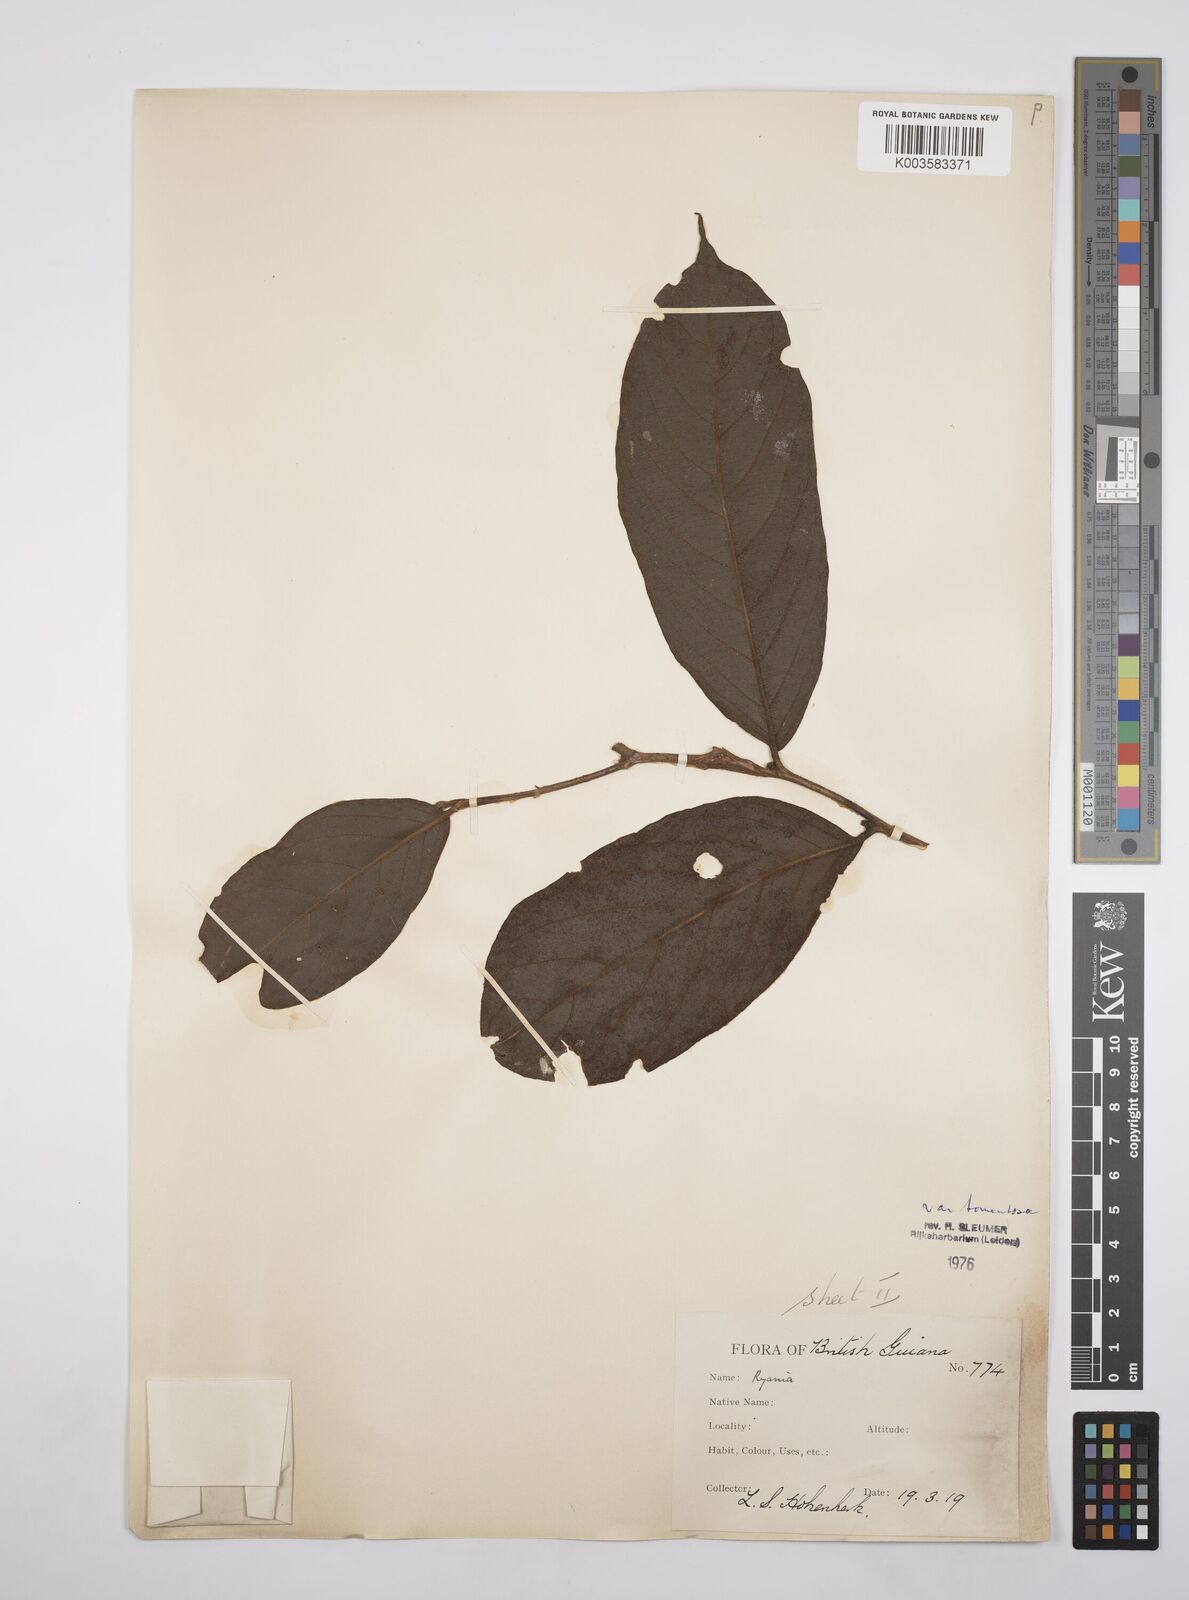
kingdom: Plantae
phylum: Tracheophyta
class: Magnoliopsida
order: Malpighiales
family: Salicaceae
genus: Ryania
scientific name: Ryania speciosa
